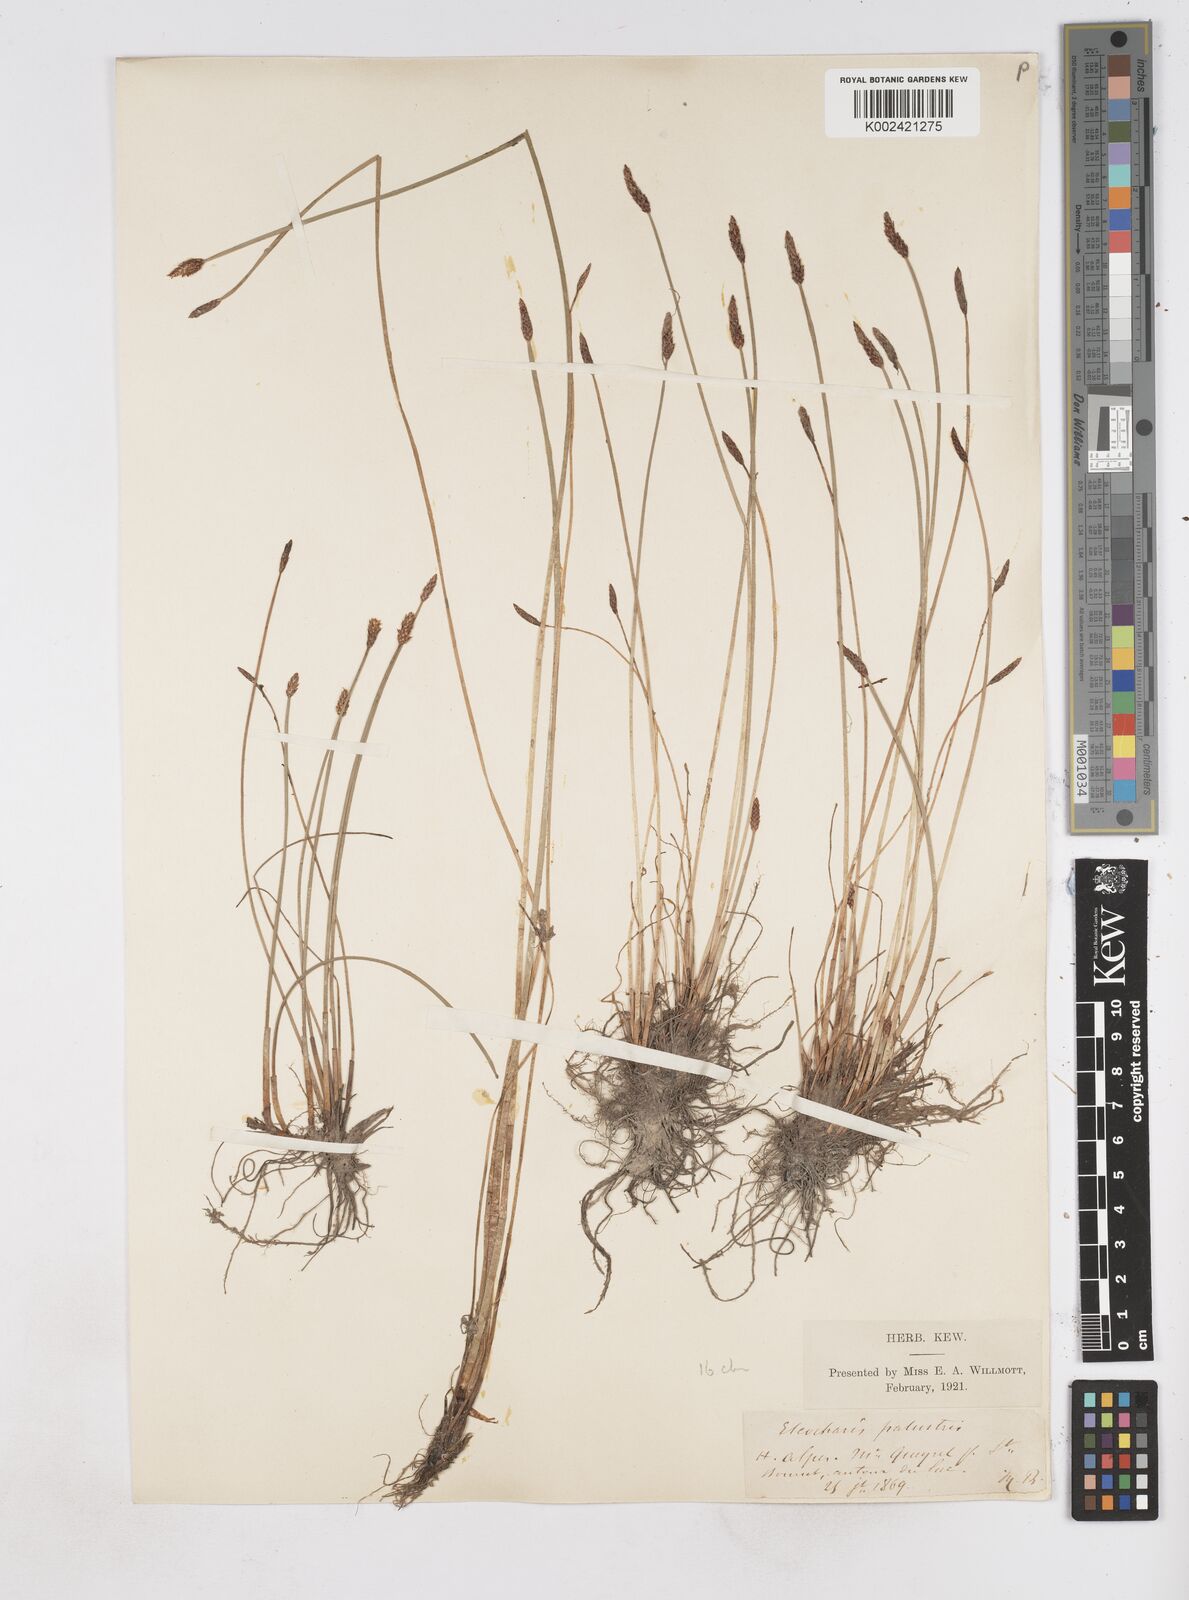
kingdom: Plantae
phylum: Tracheophyta
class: Liliopsida
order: Poales
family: Cyperaceae
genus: Eleocharis
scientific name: Eleocharis palustris
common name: Common spike-rush
